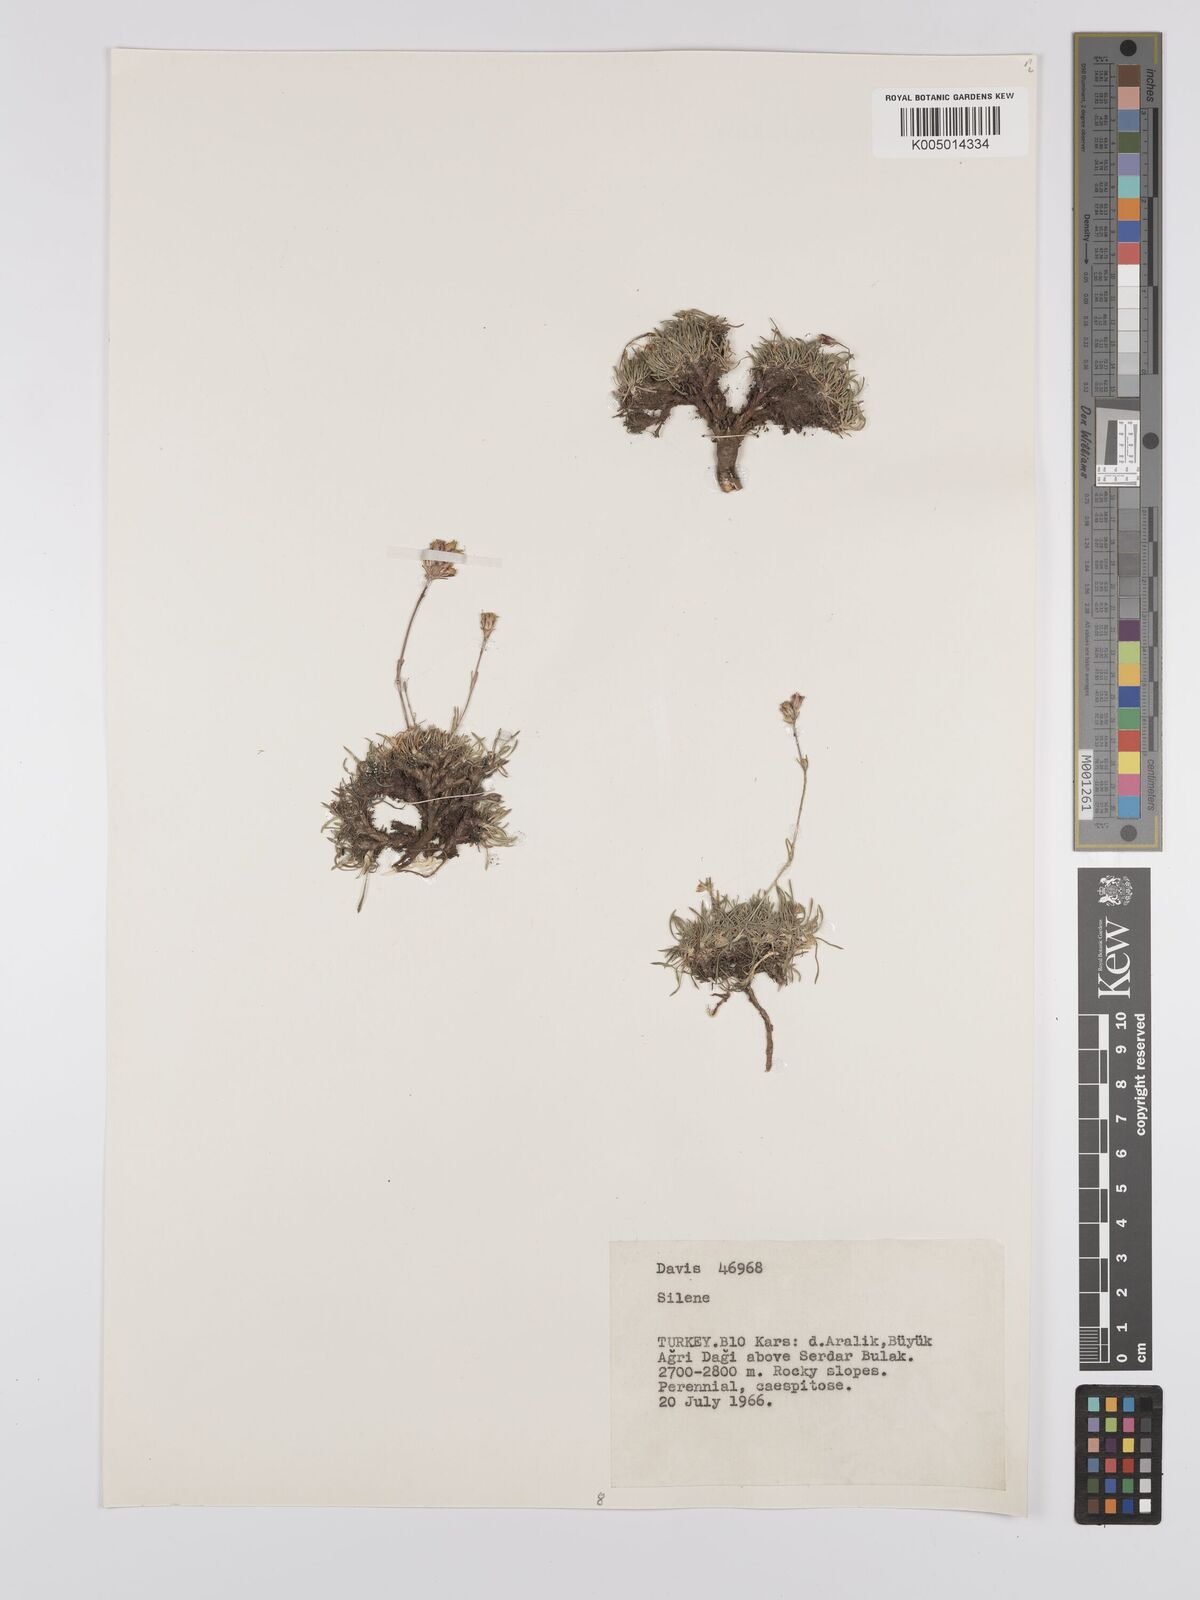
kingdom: Plantae
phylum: Tracheophyta
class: Magnoliopsida
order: Caryophyllales
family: Caryophyllaceae
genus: Silene
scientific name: Silene
